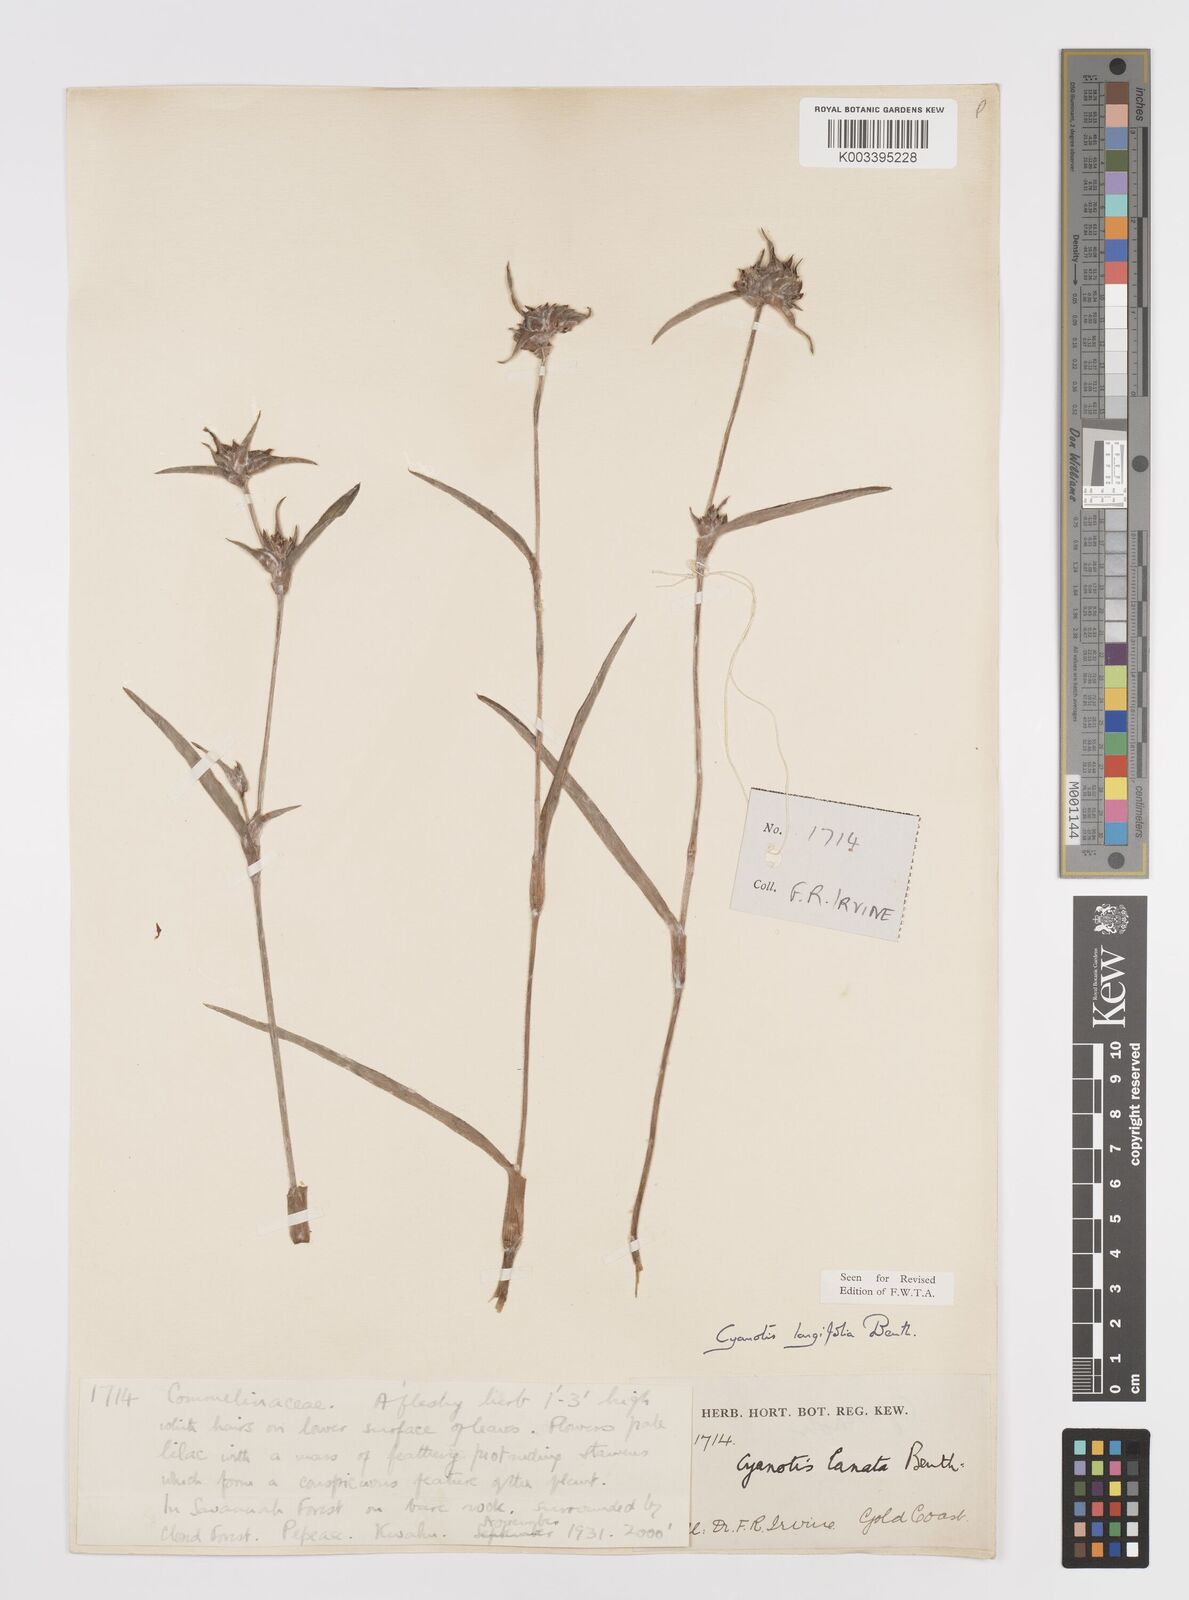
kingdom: Plantae
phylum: Tracheophyta
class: Liliopsida
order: Commelinales
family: Commelinaceae
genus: Cyanotis
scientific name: Cyanotis
